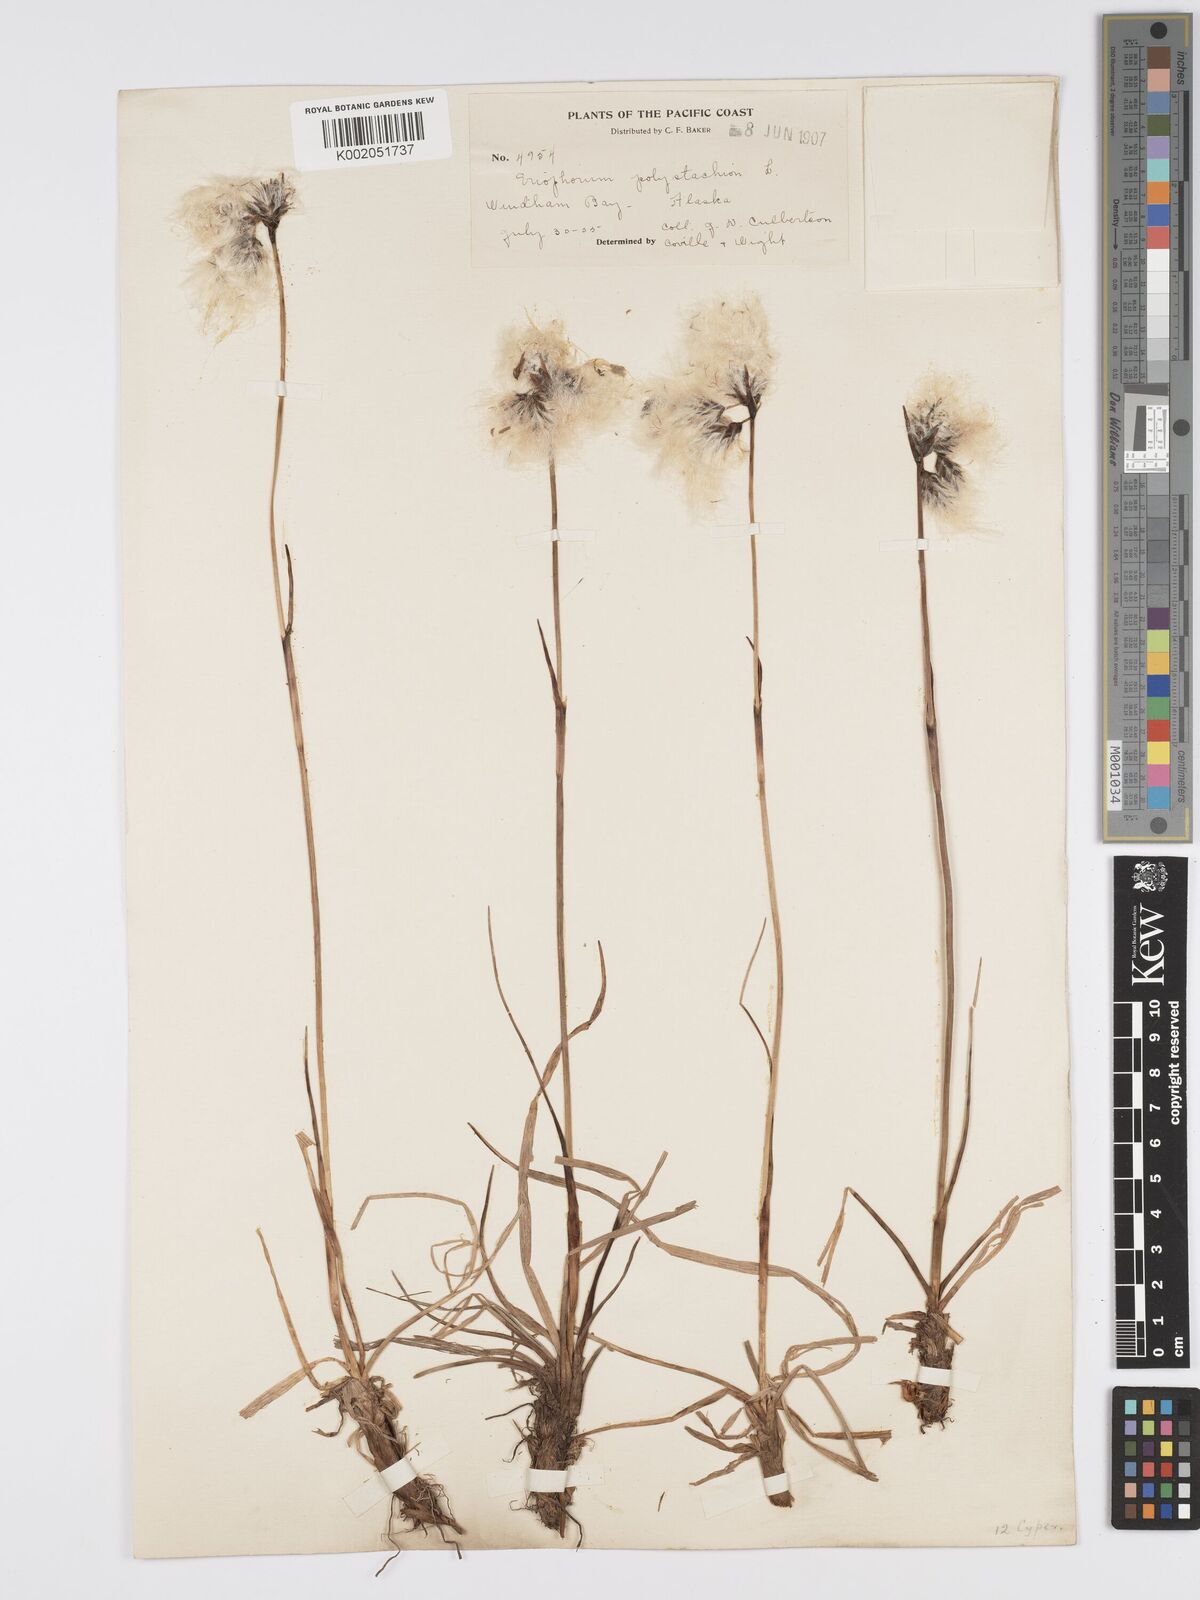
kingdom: Plantae
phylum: Tracheophyta
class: Liliopsida
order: Poales
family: Cyperaceae
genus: Eriophorum
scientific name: Eriophorum angustifolium
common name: Common cottongrass
